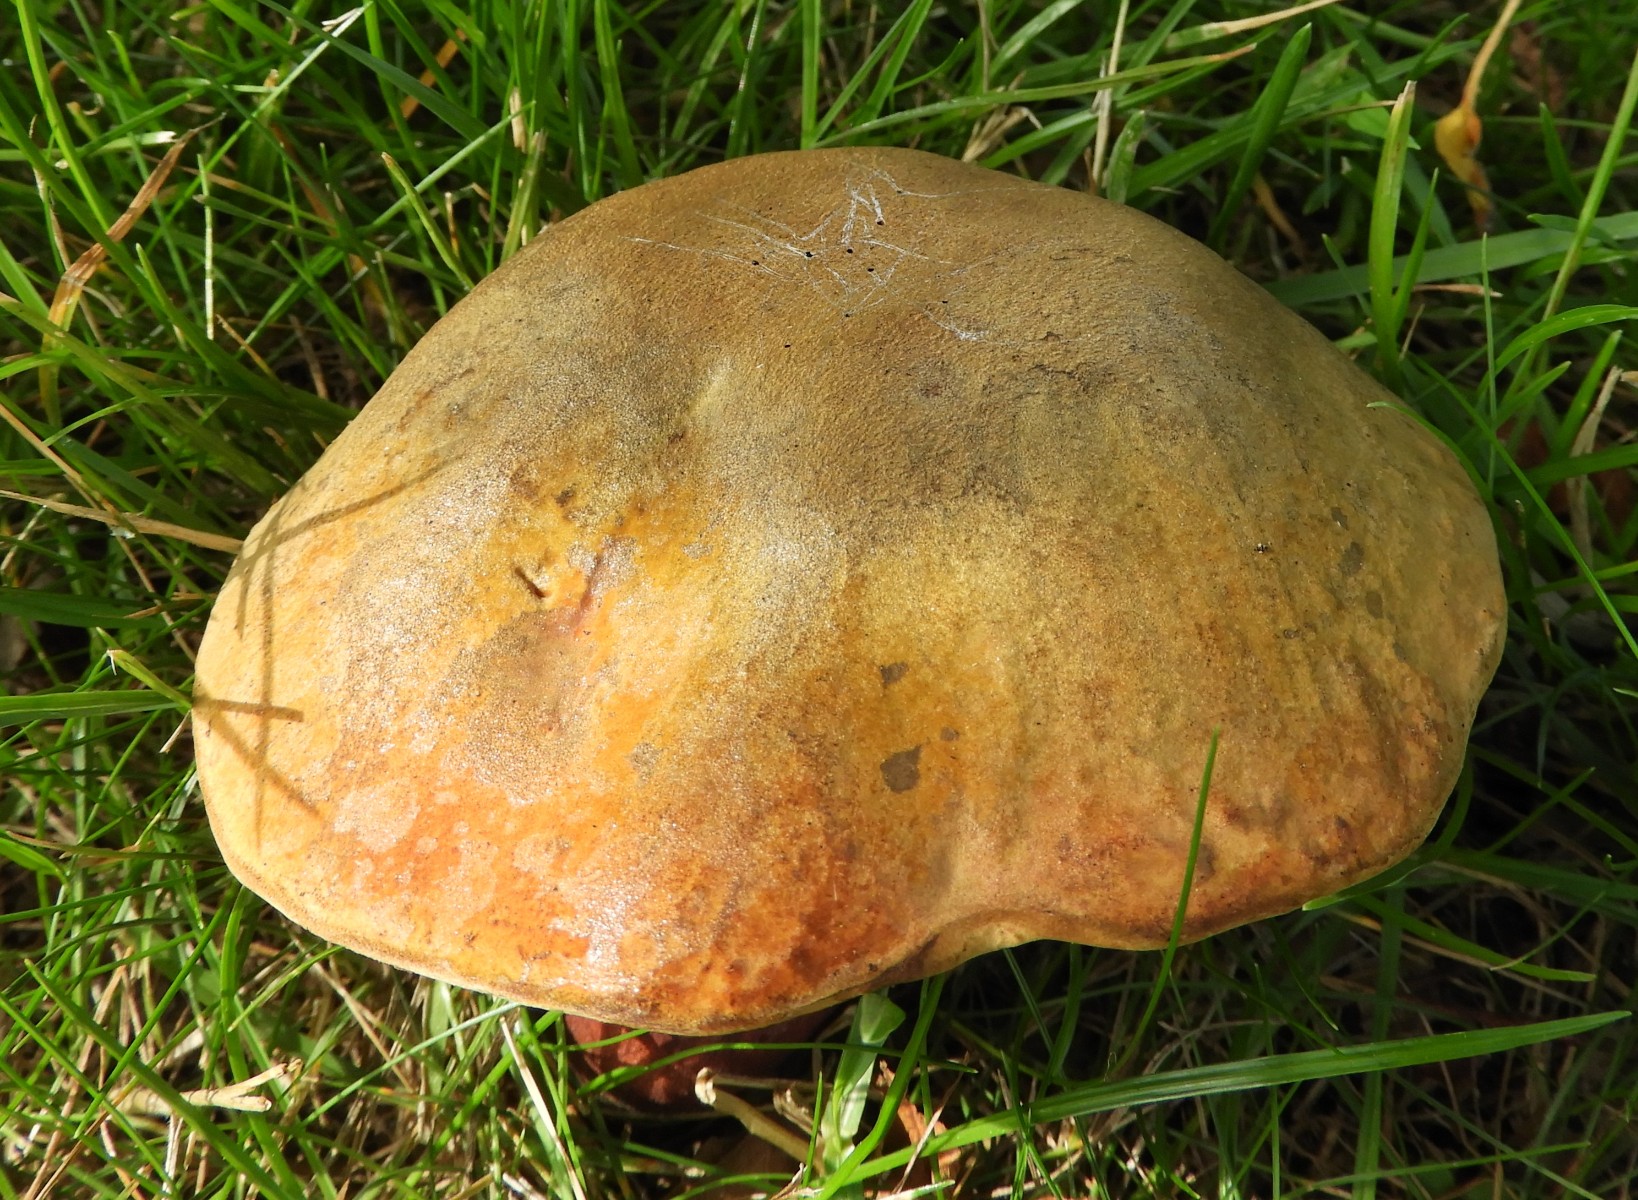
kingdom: Fungi
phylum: Basidiomycota
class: Agaricomycetes
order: Boletales
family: Boletaceae
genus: Suillellus
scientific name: Suillellus luridus
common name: netstokket indigorørhat
